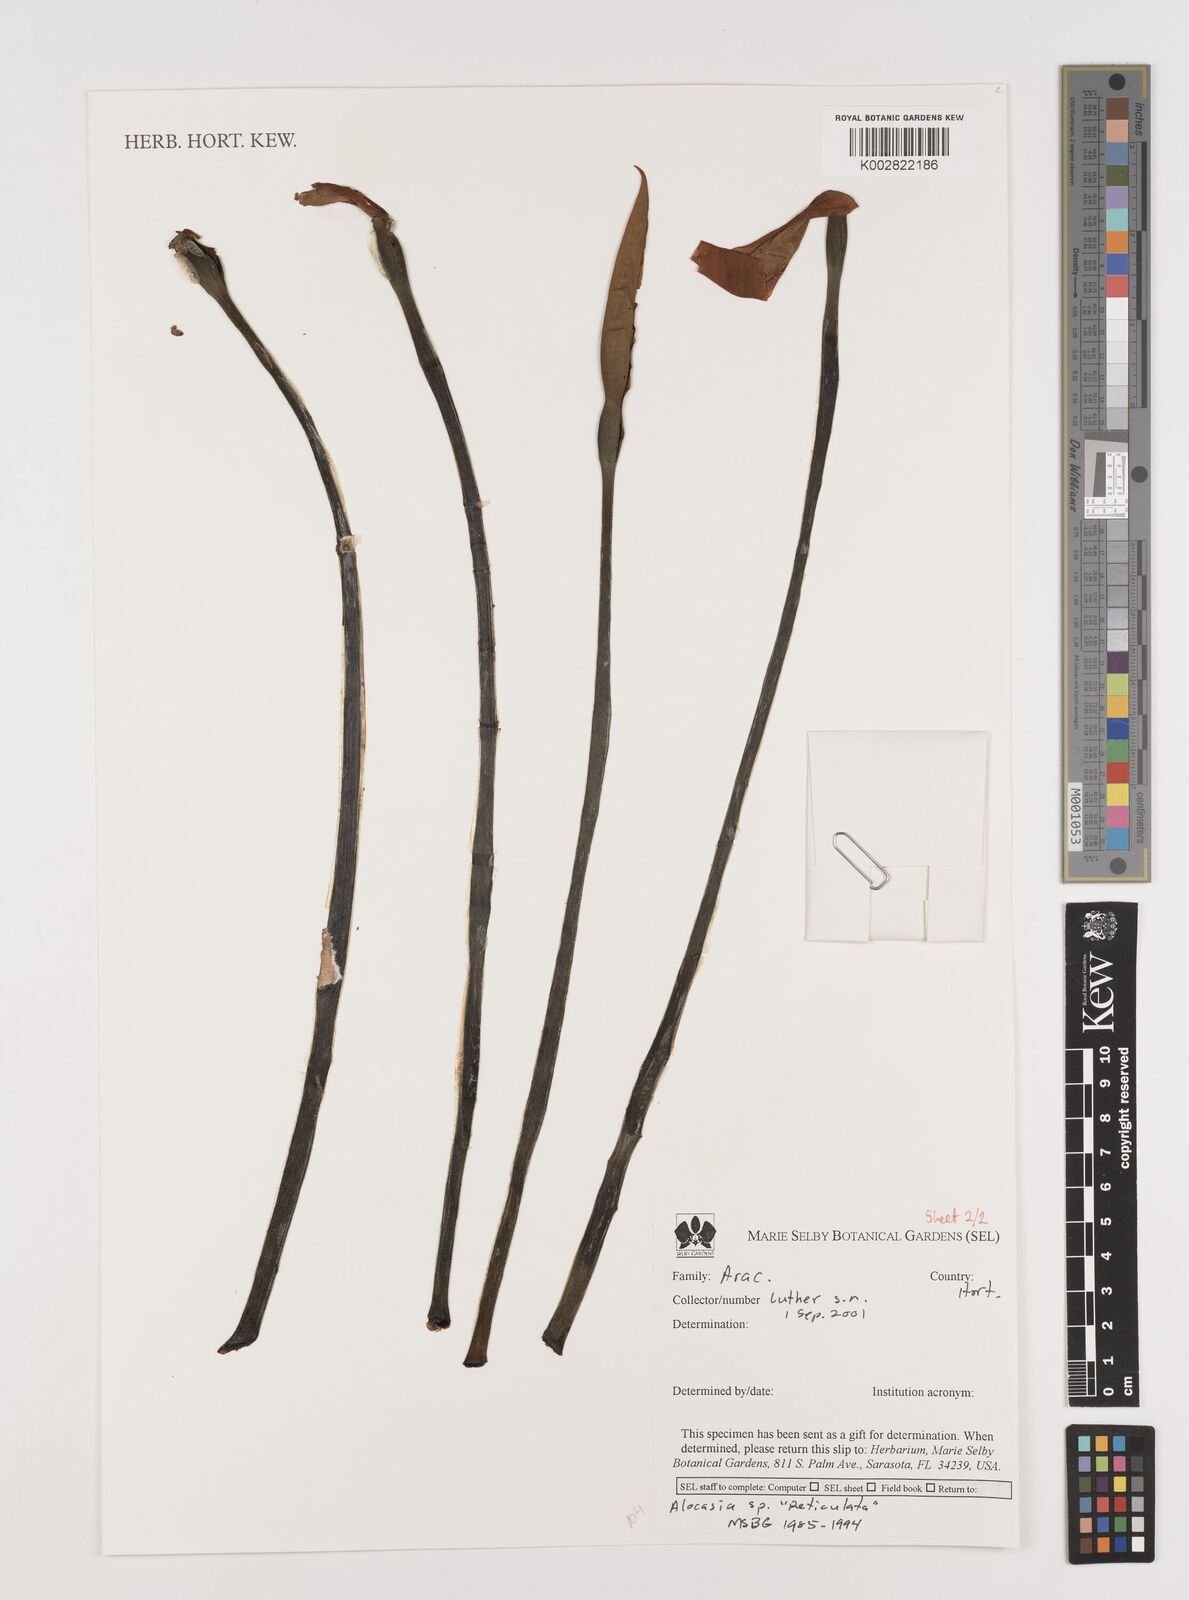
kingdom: Plantae
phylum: Tracheophyta
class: Liliopsida
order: Alismatales
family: Araceae
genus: Alocasia
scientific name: Alocasia
